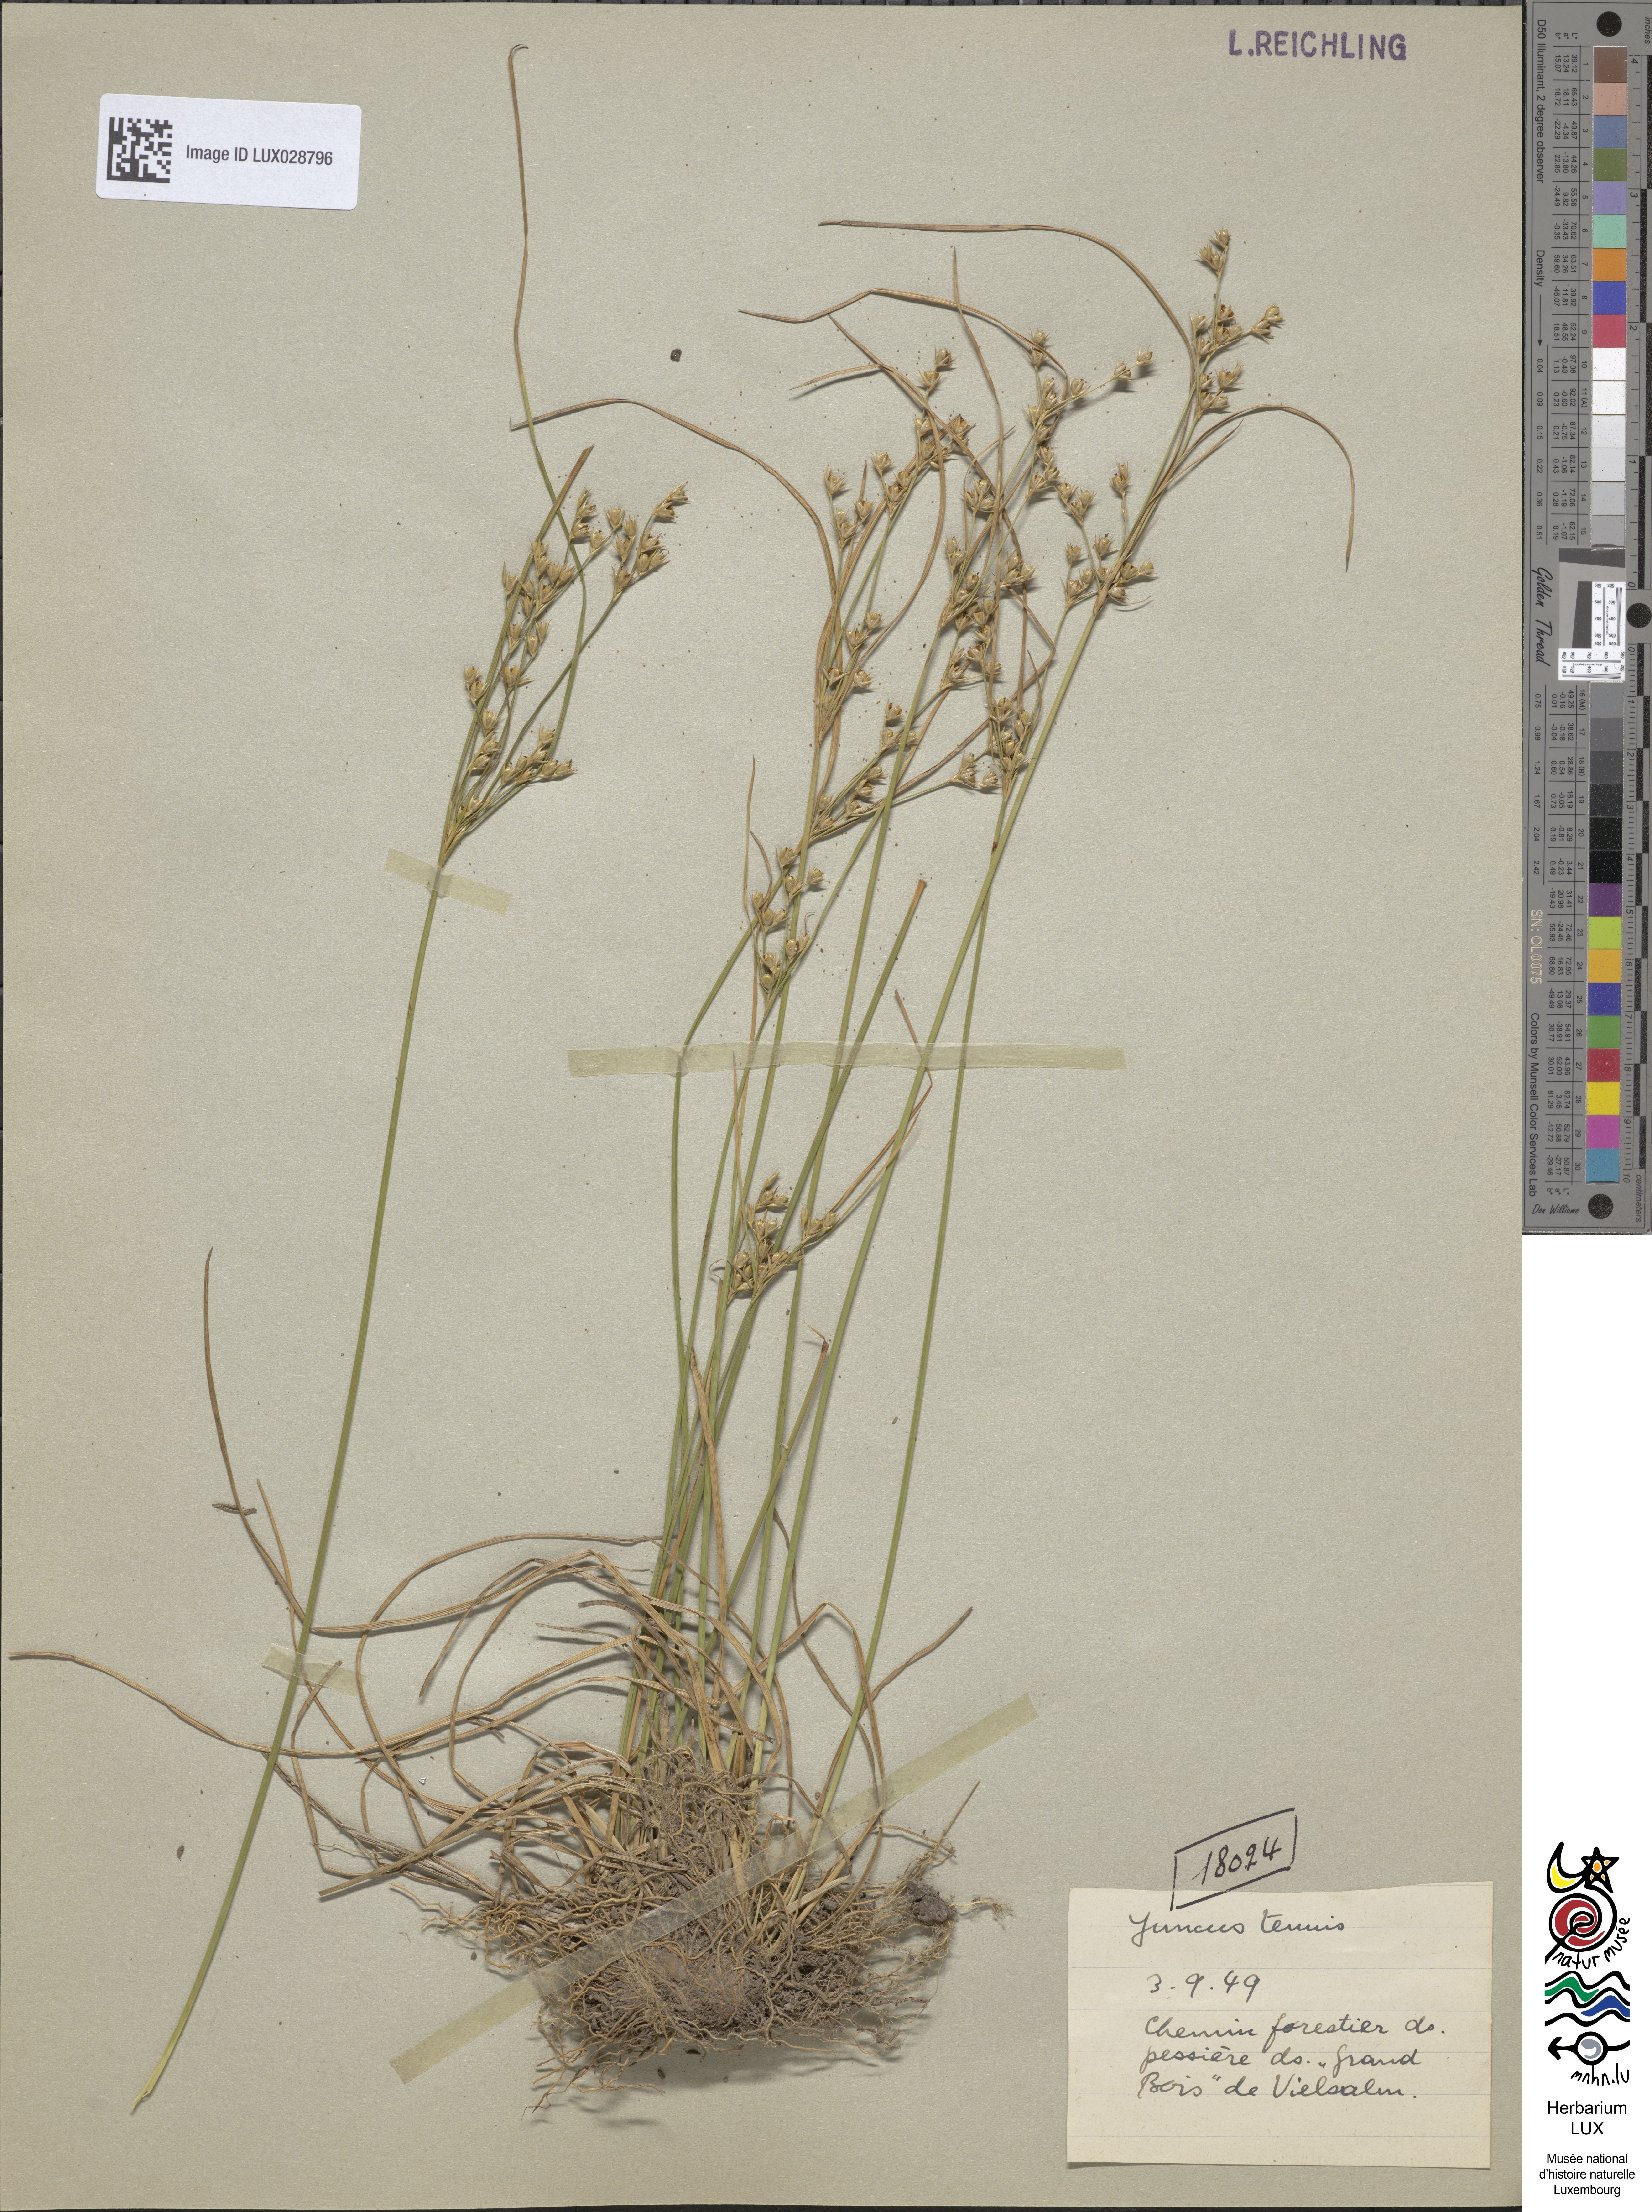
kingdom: Plantae
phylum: Tracheophyta
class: Liliopsida
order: Poales
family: Juncaceae
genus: Juncus
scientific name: Juncus tenuis
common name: Slender rush
